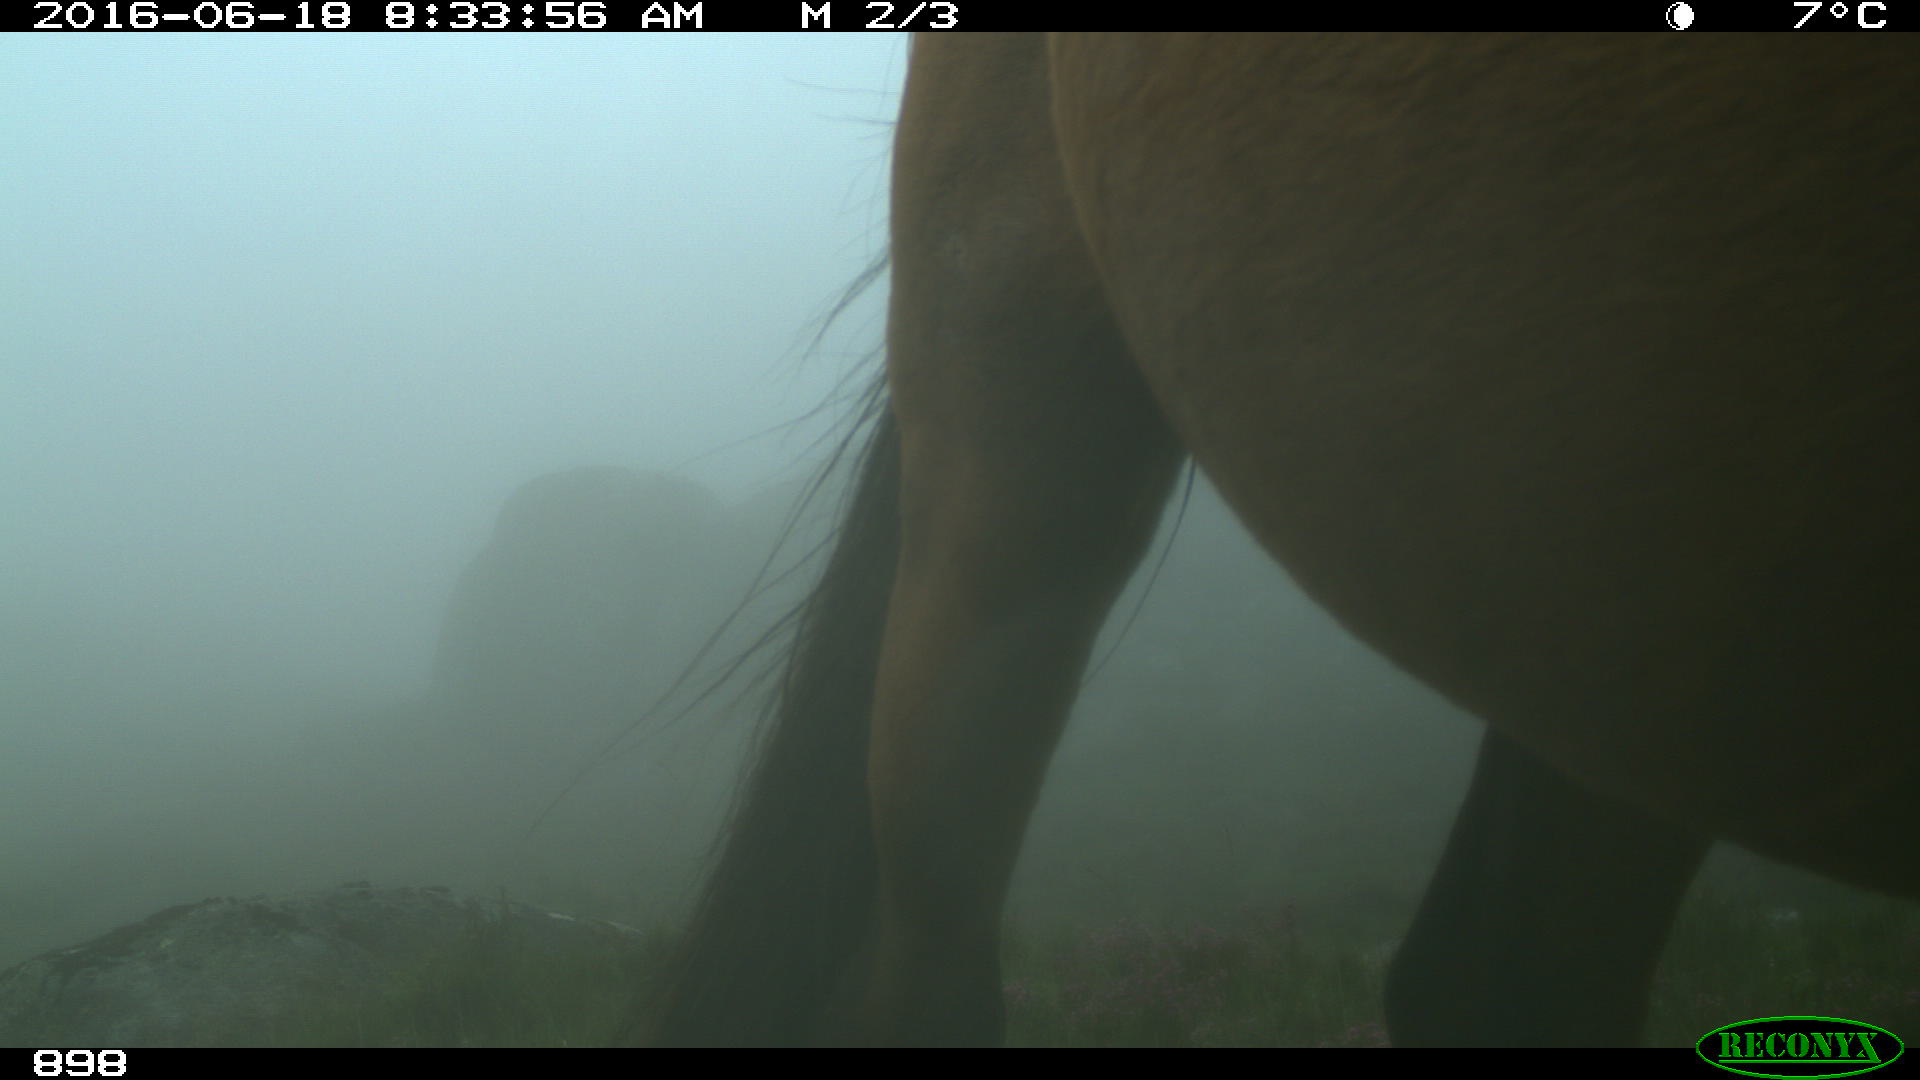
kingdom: Animalia
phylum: Chordata
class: Mammalia
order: Perissodactyla
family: Equidae
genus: Equus
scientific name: Equus caballus
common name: Horse
